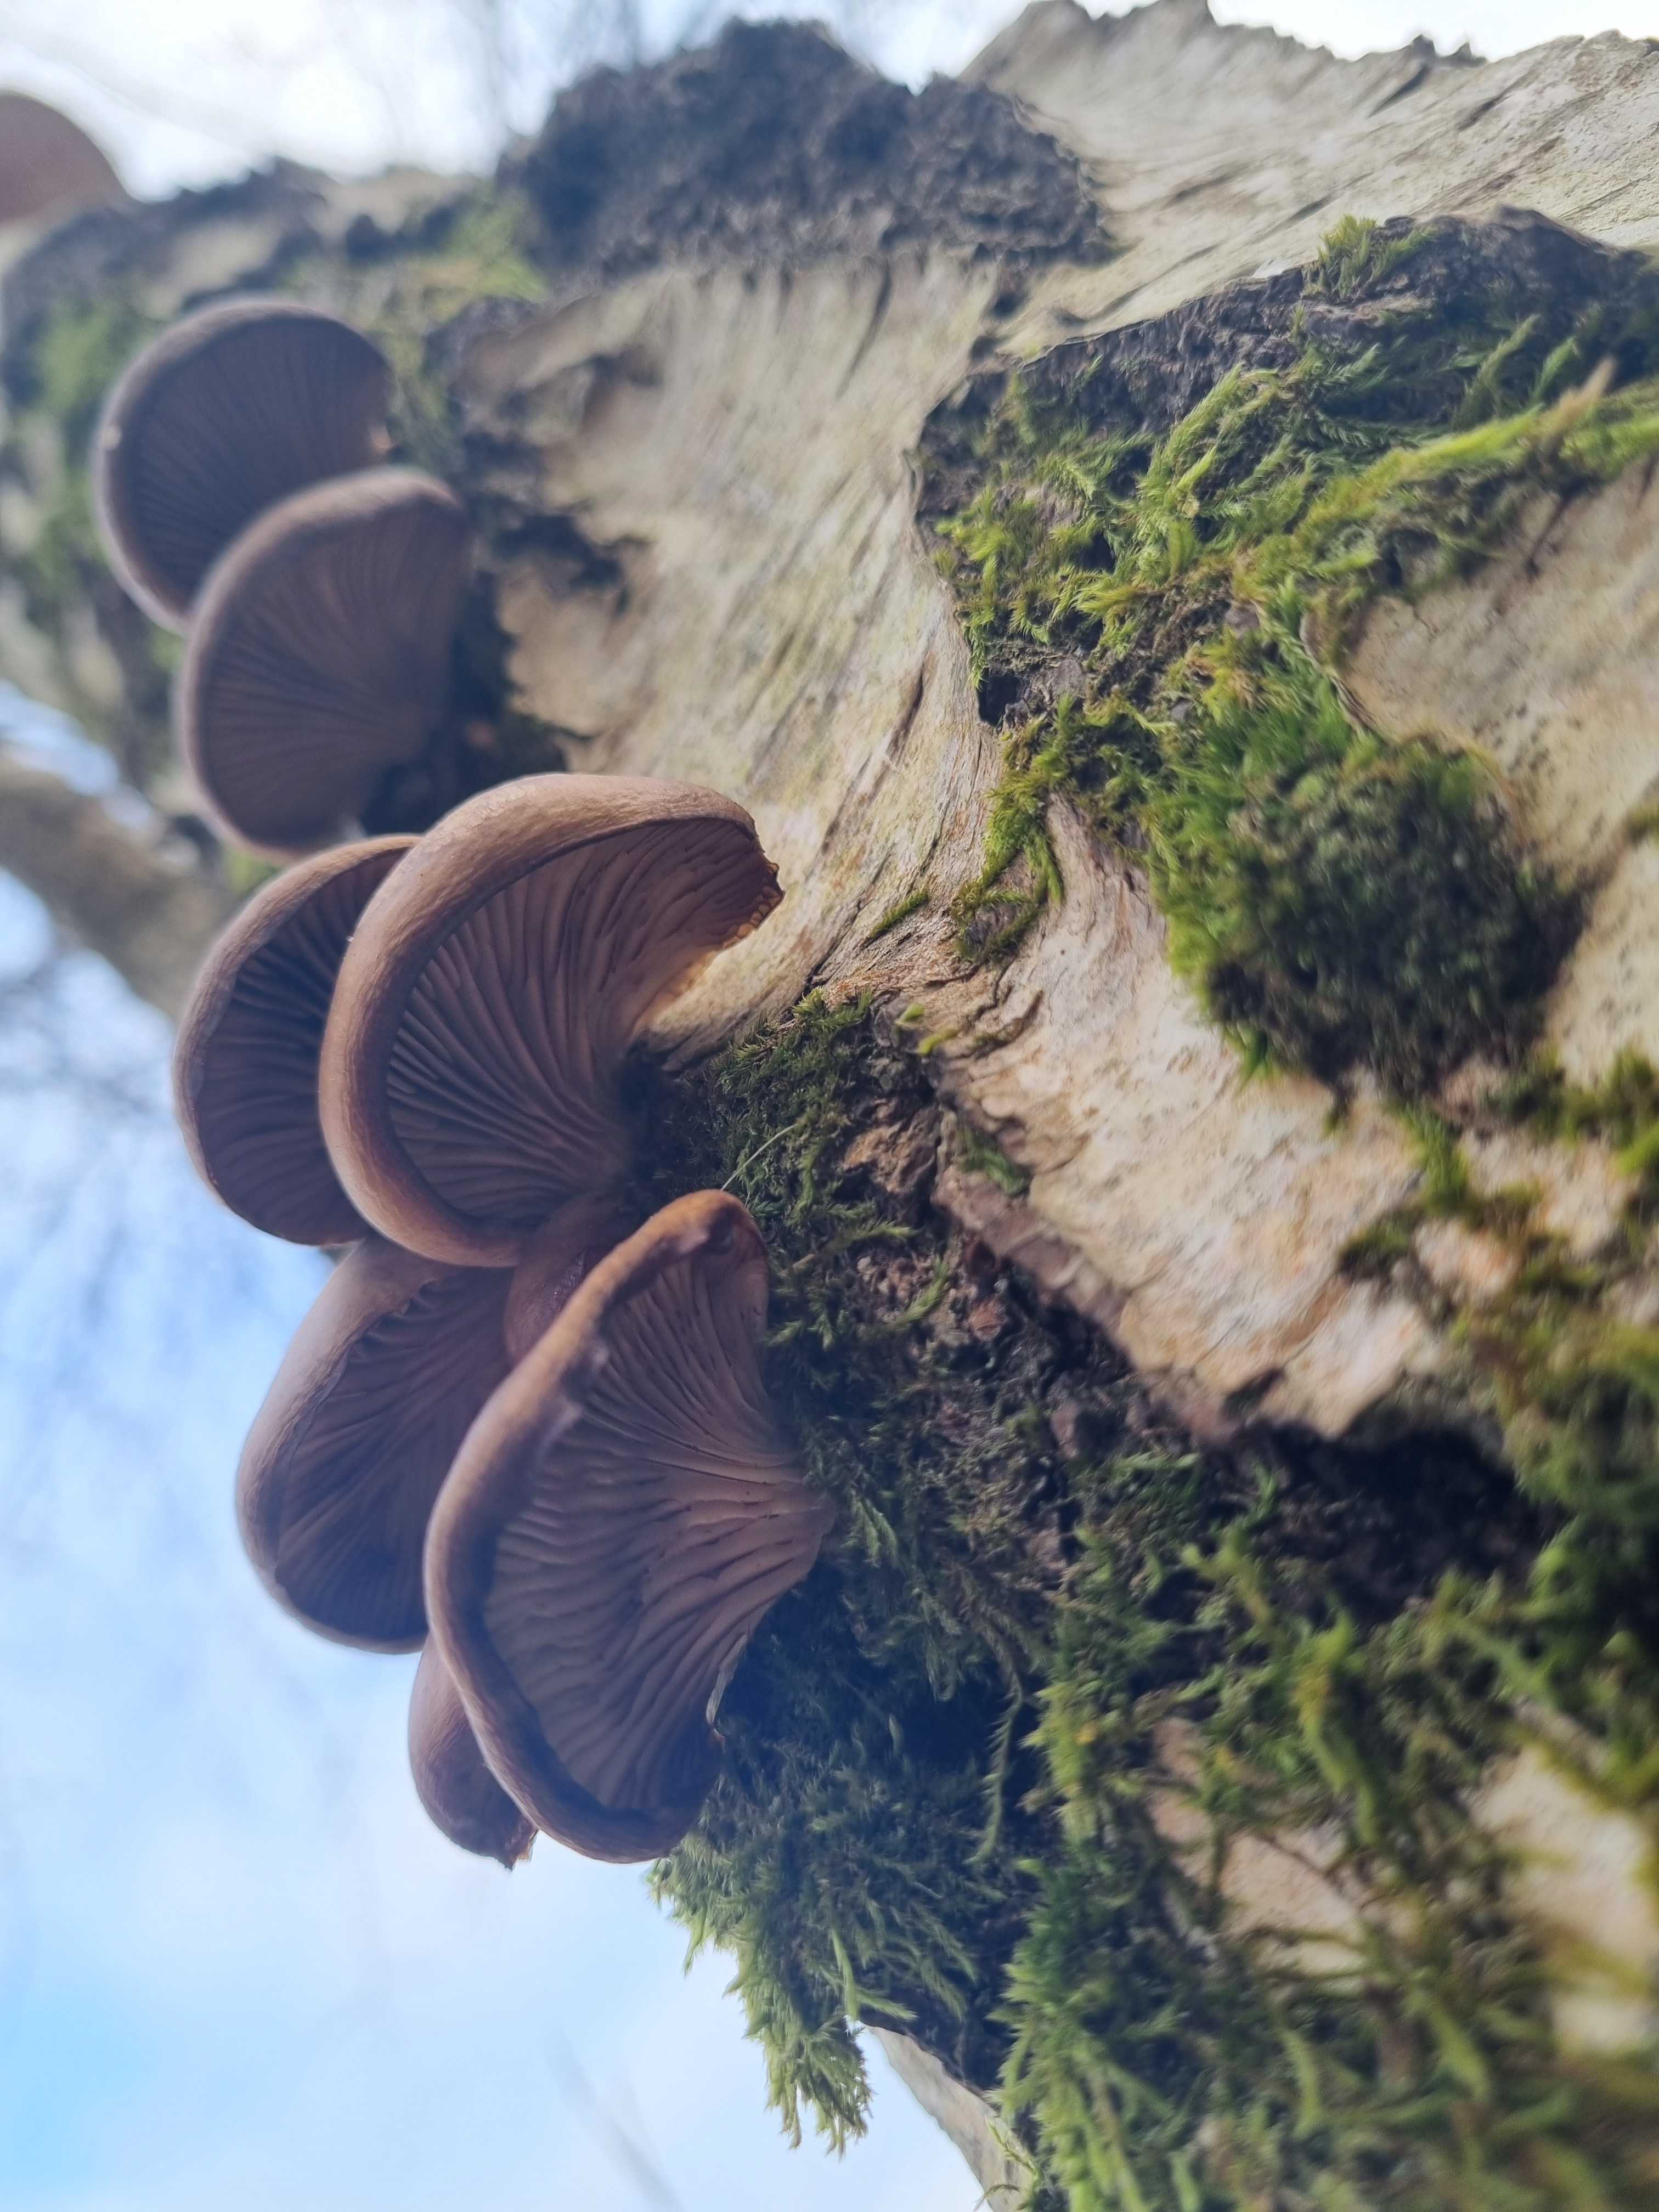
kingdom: Fungi
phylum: Basidiomycota
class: Agaricomycetes
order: Agaricales
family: Pleurotaceae
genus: Pleurotus
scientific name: Pleurotus ostreatus
